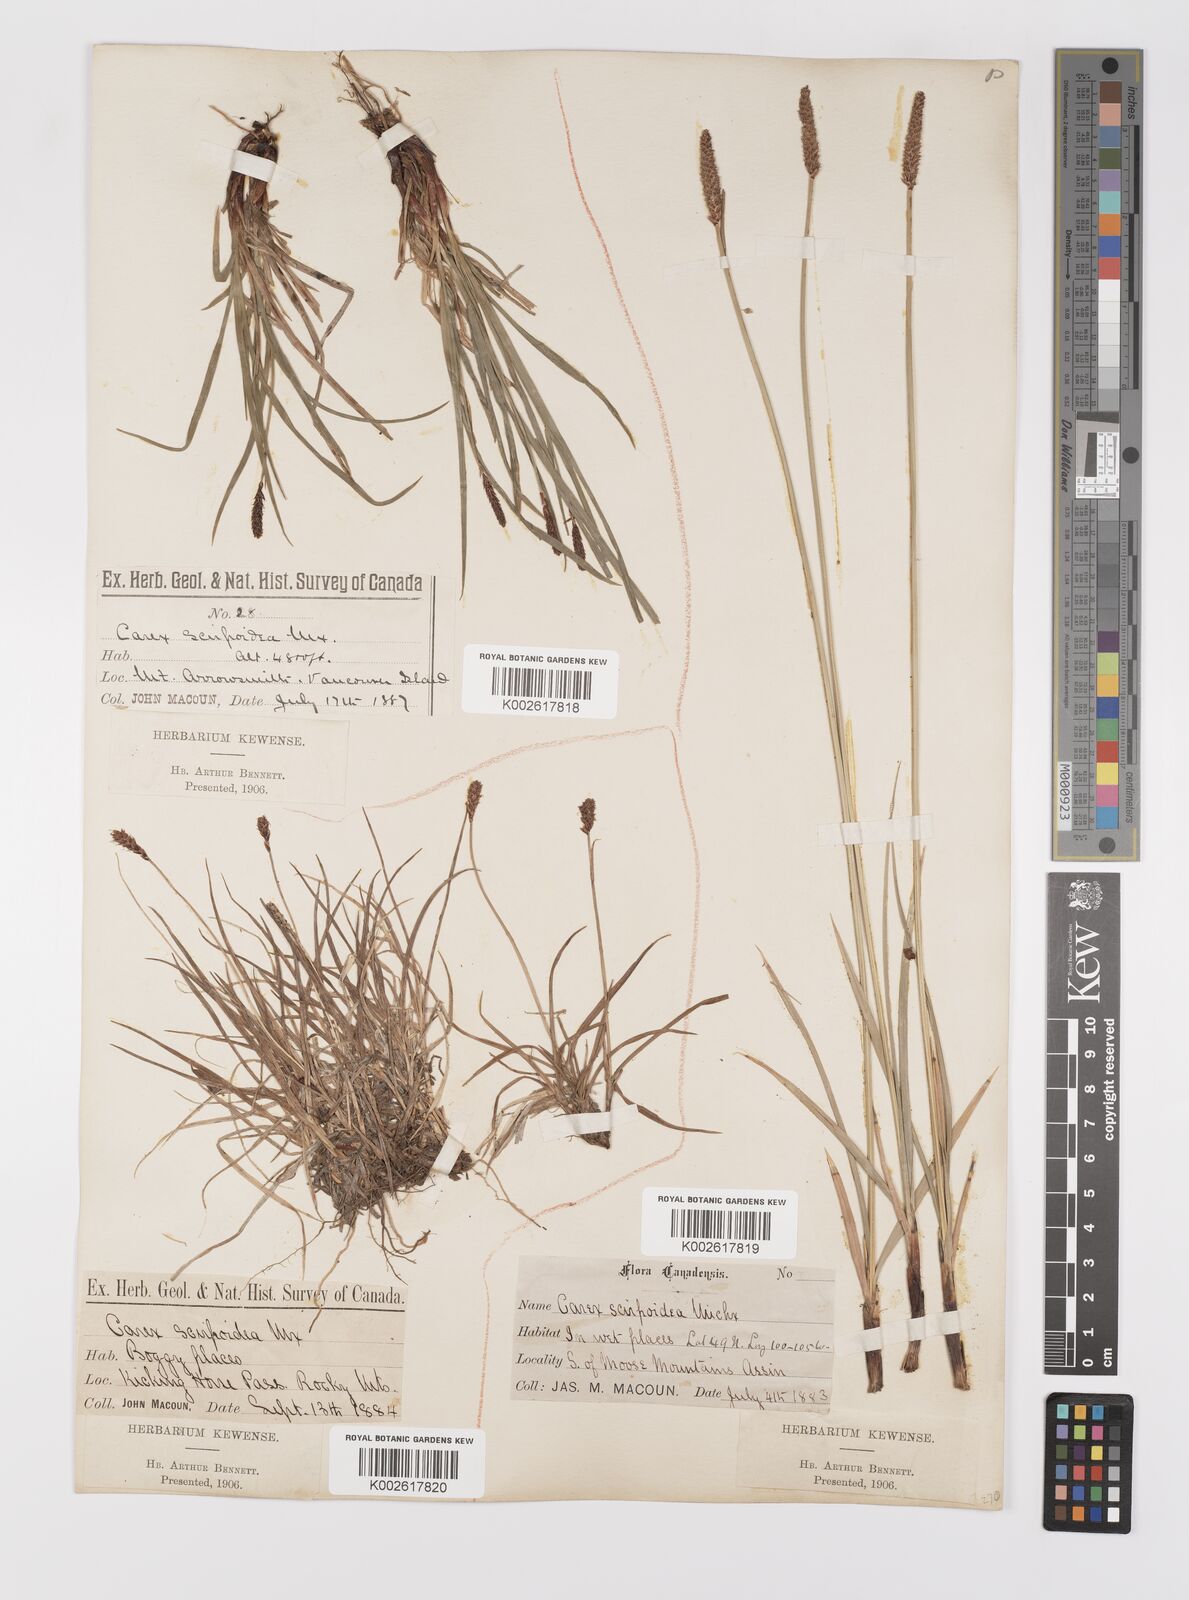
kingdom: Plantae
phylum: Tracheophyta
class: Liliopsida
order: Poales
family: Cyperaceae
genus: Carex
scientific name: Carex scirpoidea
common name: Canada single-spike sedge
